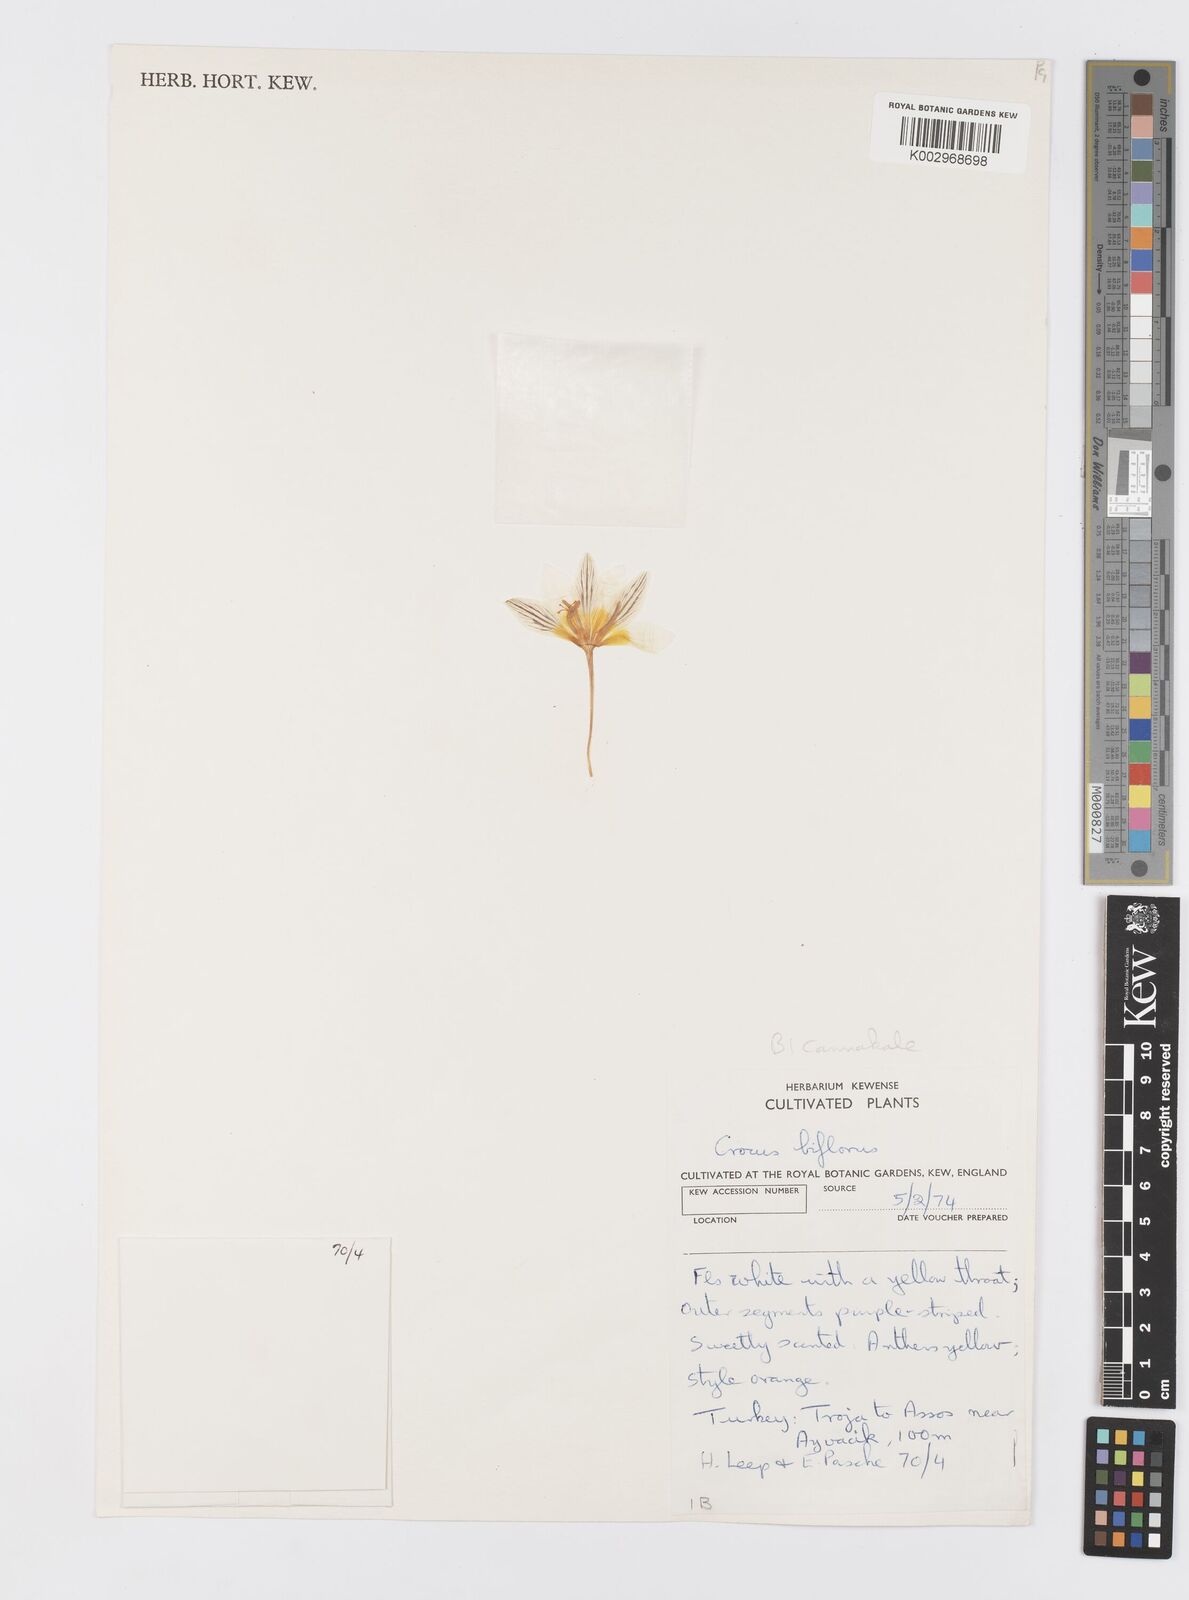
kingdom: Plantae
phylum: Tracheophyta
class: Liliopsida
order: Asparagales
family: Iridaceae
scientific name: Iridaceae
